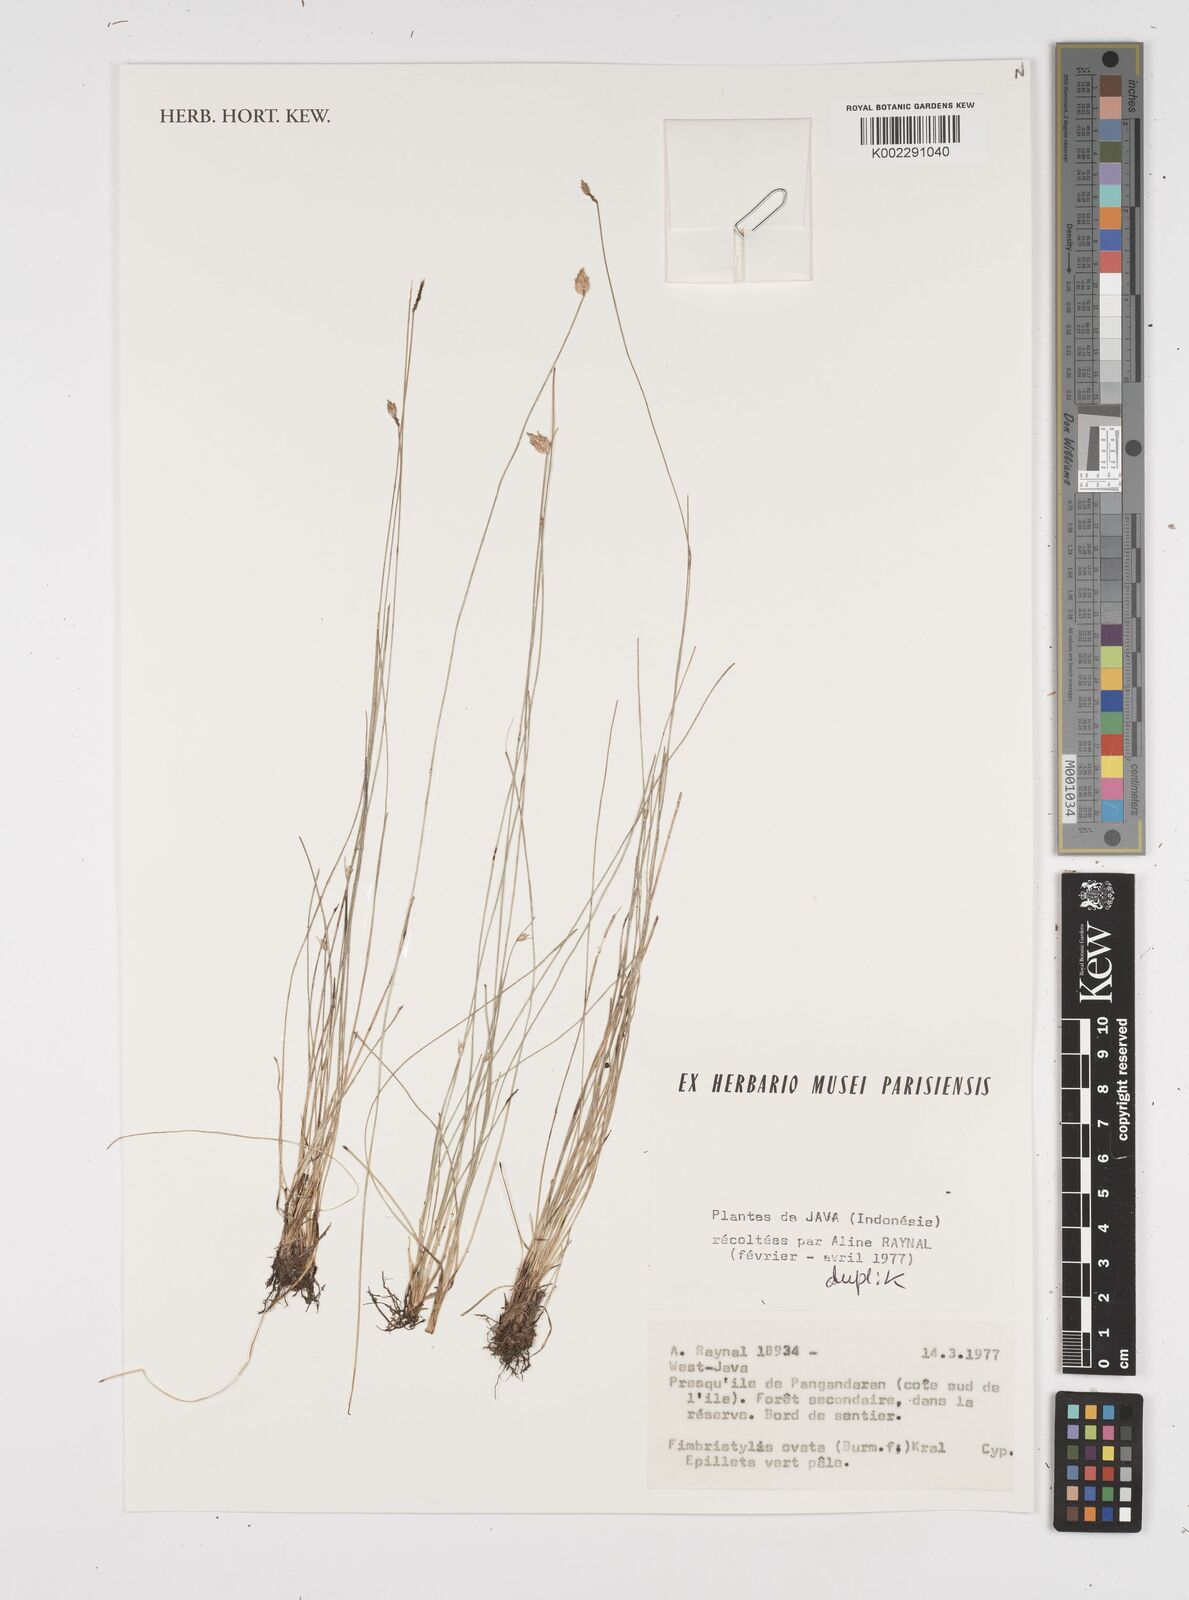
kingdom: Plantae
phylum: Tracheophyta
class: Liliopsida
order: Poales
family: Cyperaceae
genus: Abildgaardia
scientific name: Abildgaardia ovata
